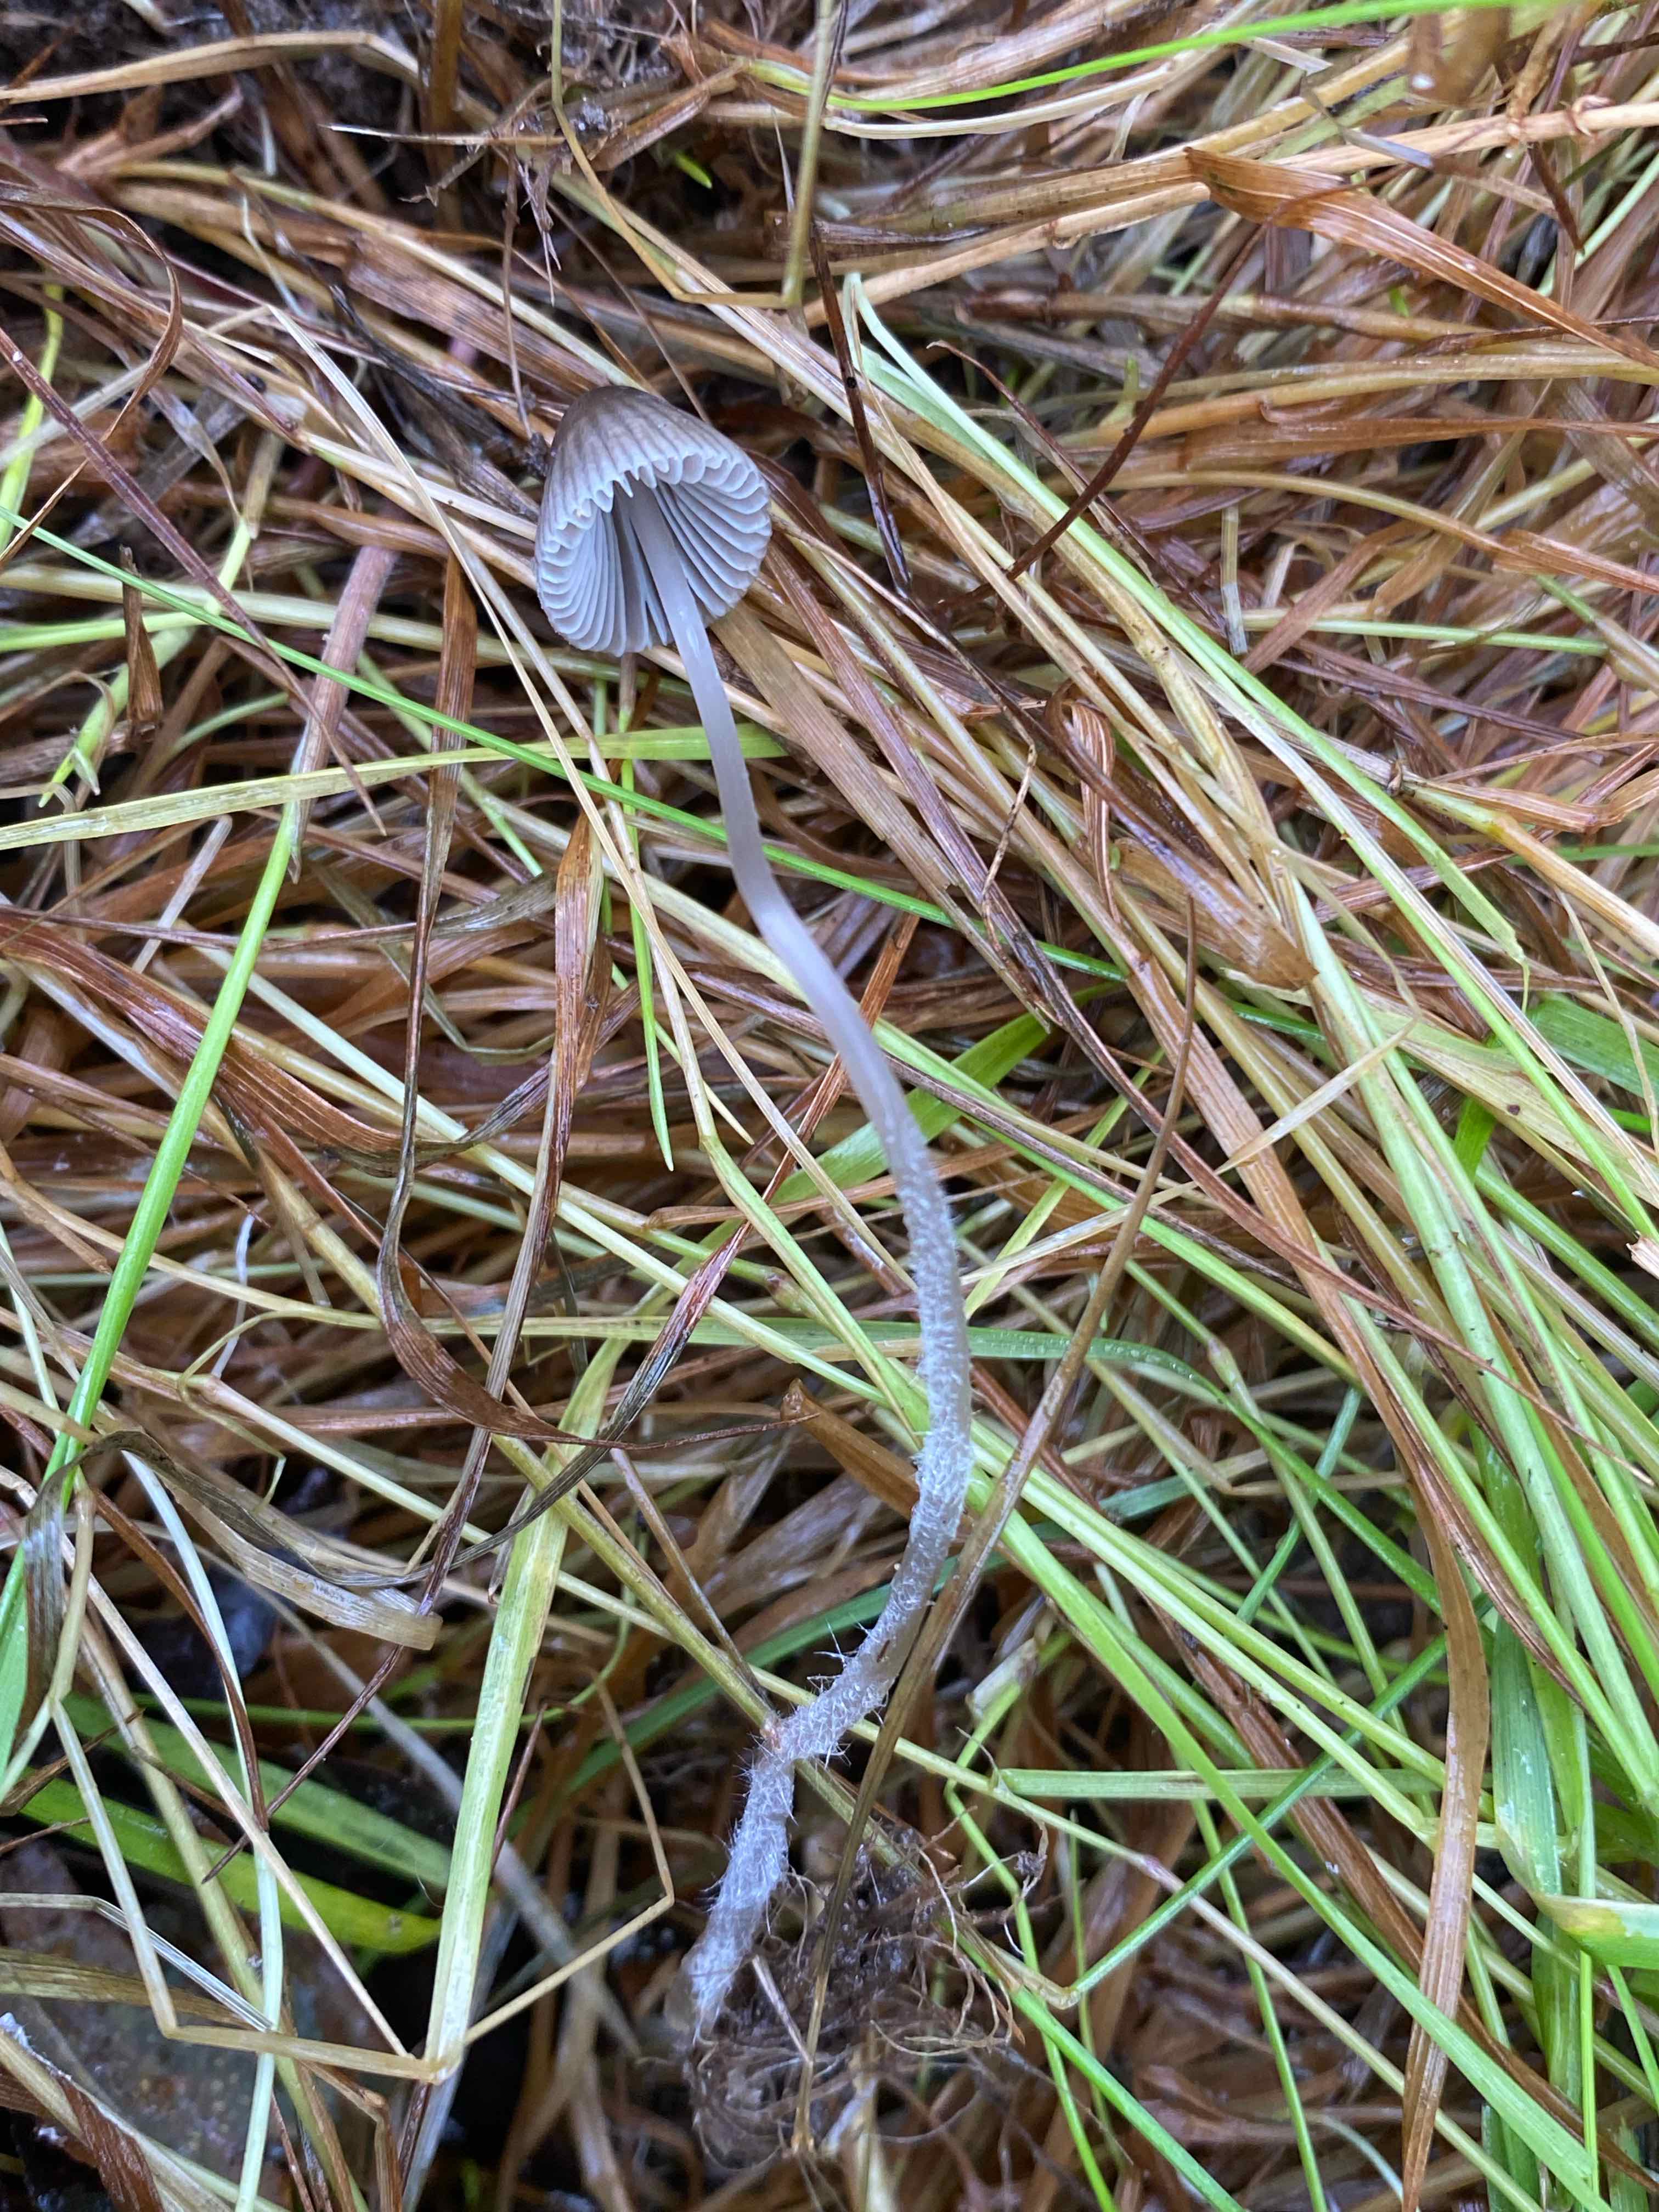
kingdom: Fungi
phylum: Basidiomycota
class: Agaricomycetes
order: Agaricales
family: Mycenaceae
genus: Mycena
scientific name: Mycena
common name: huesvamp
